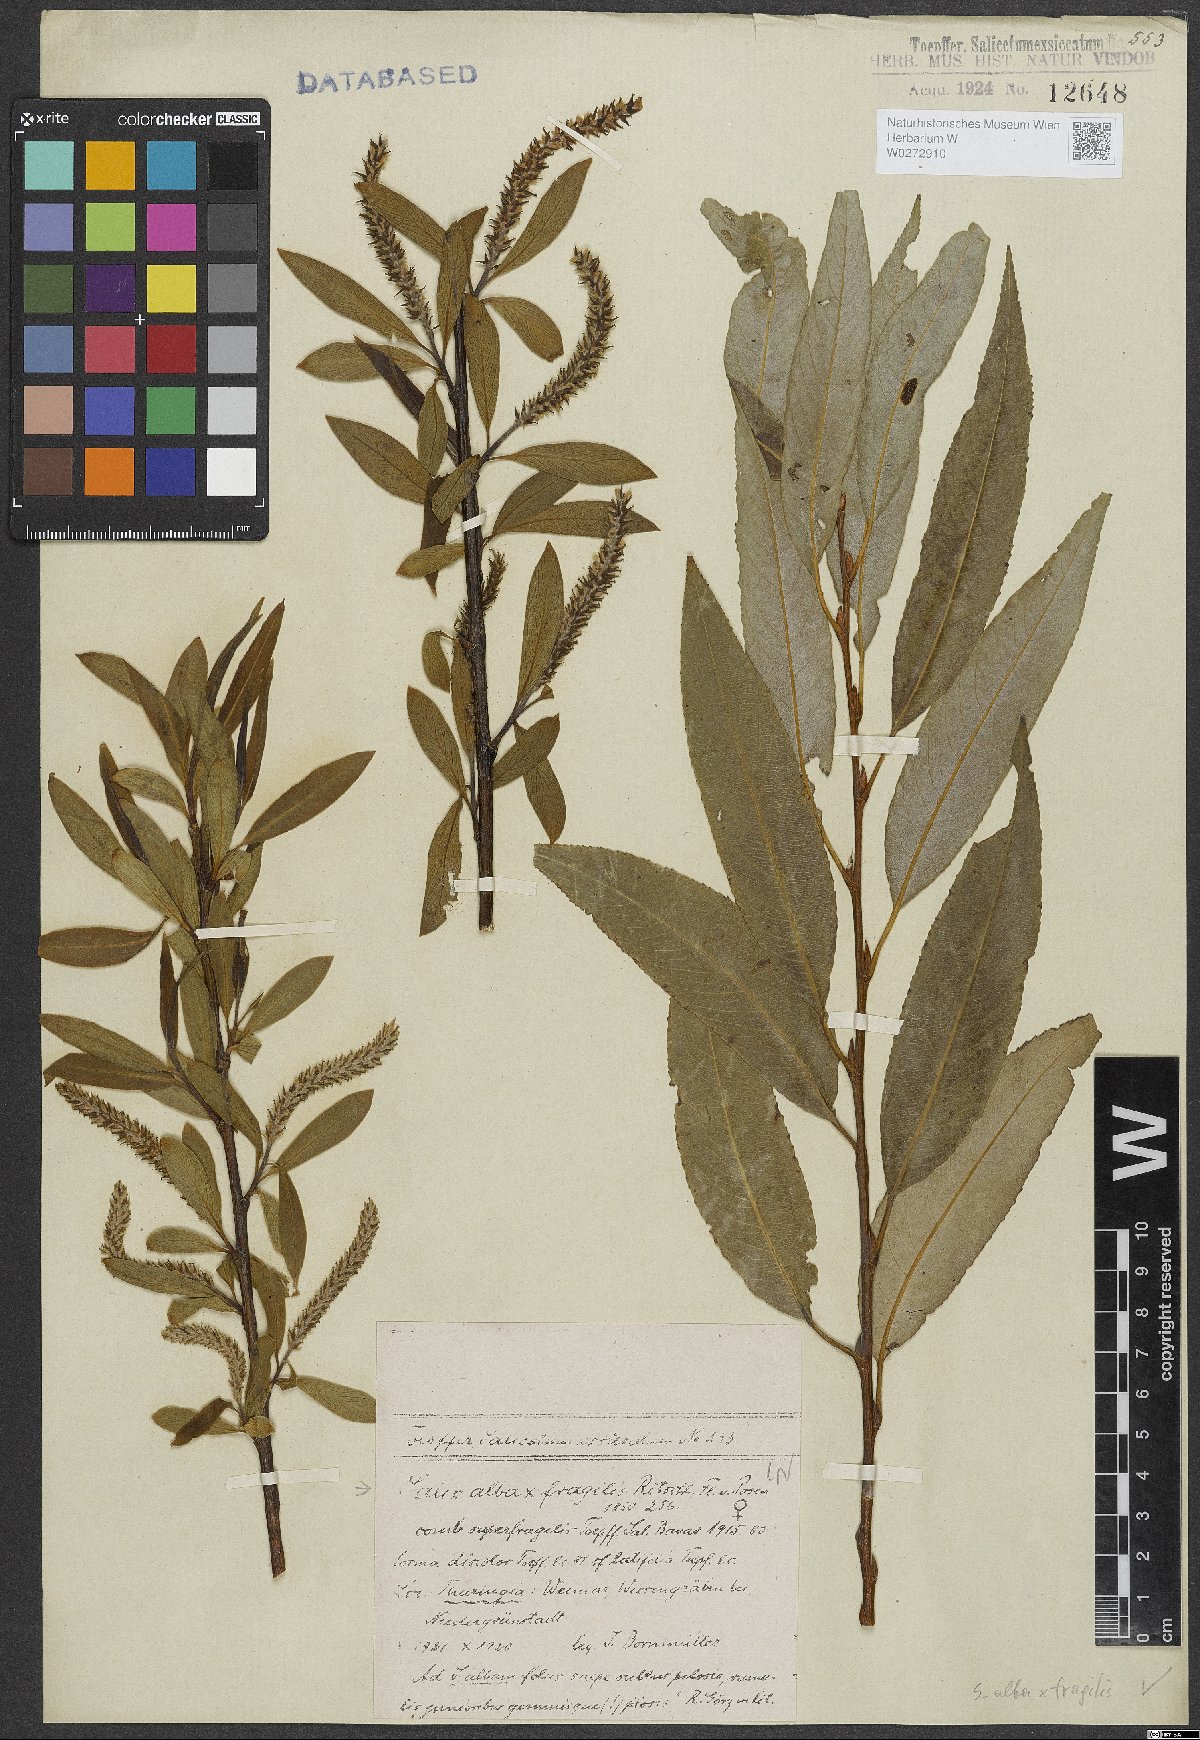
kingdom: Plantae
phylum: Tracheophyta
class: Magnoliopsida
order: Malpighiales
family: Salicaceae
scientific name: Salicaceae
